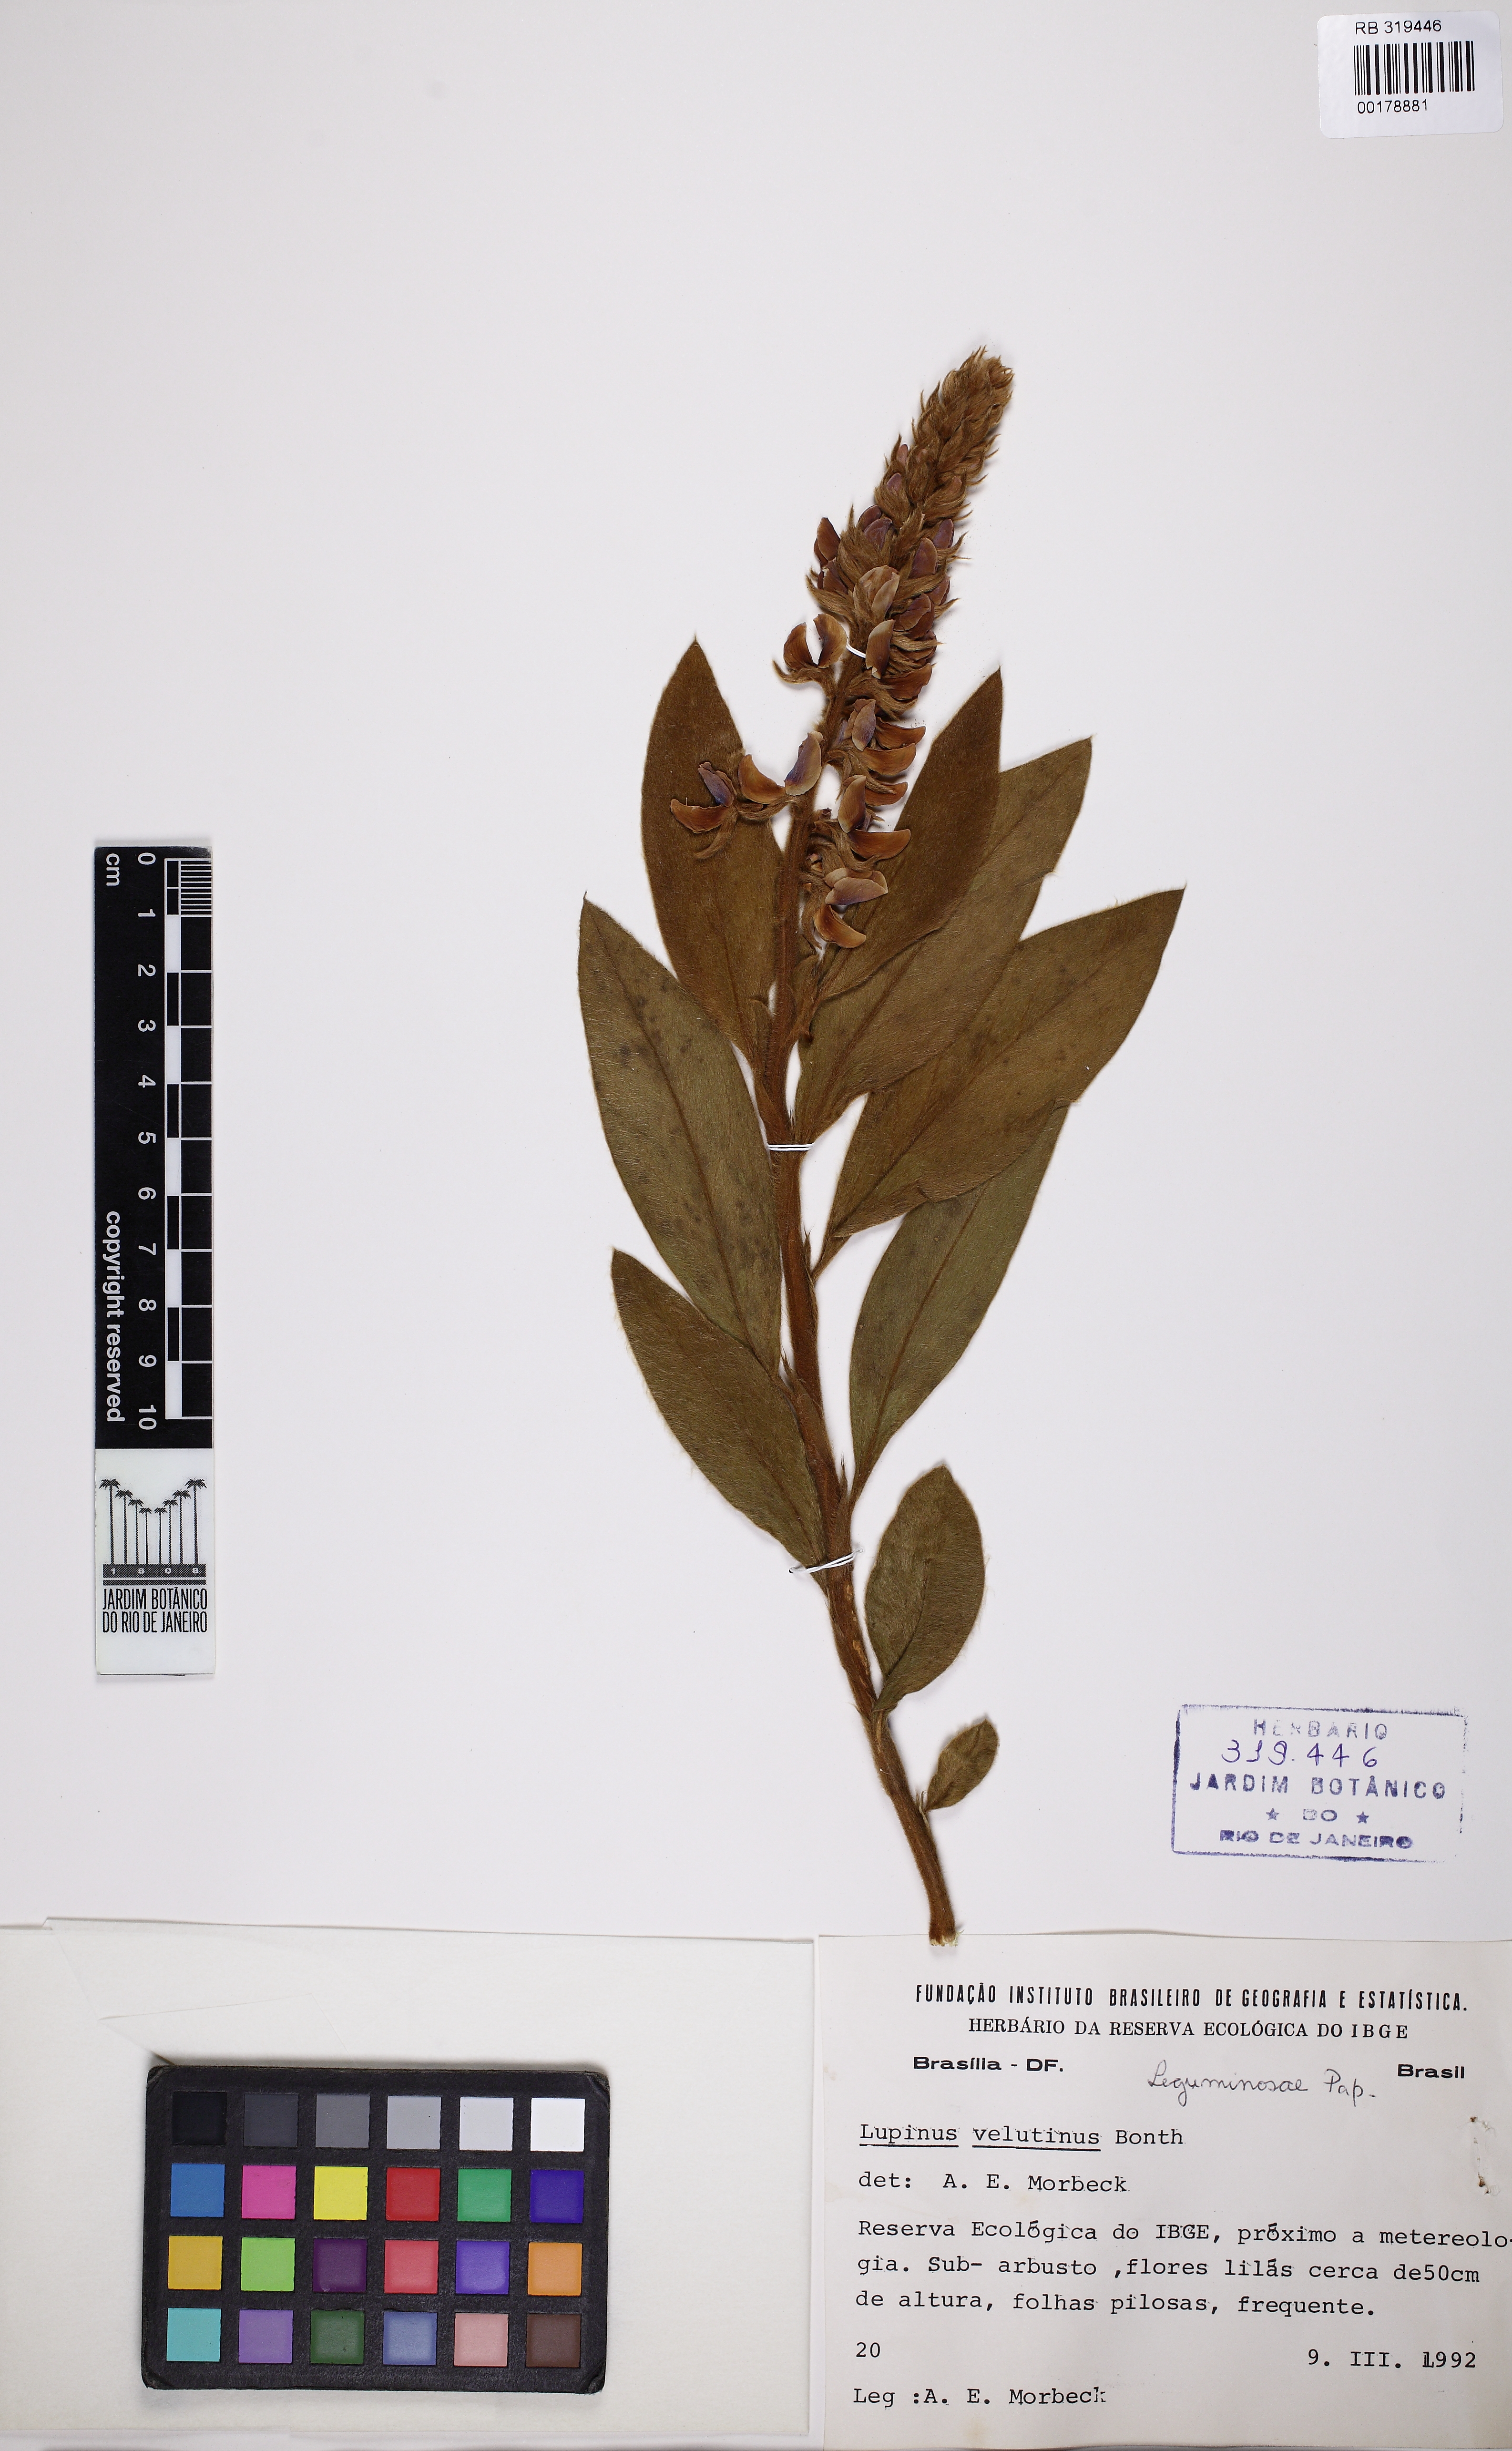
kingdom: Plantae
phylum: Tracheophyta
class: Magnoliopsida
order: Fabales
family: Fabaceae
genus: Lupinus
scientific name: Lupinus velutinus
